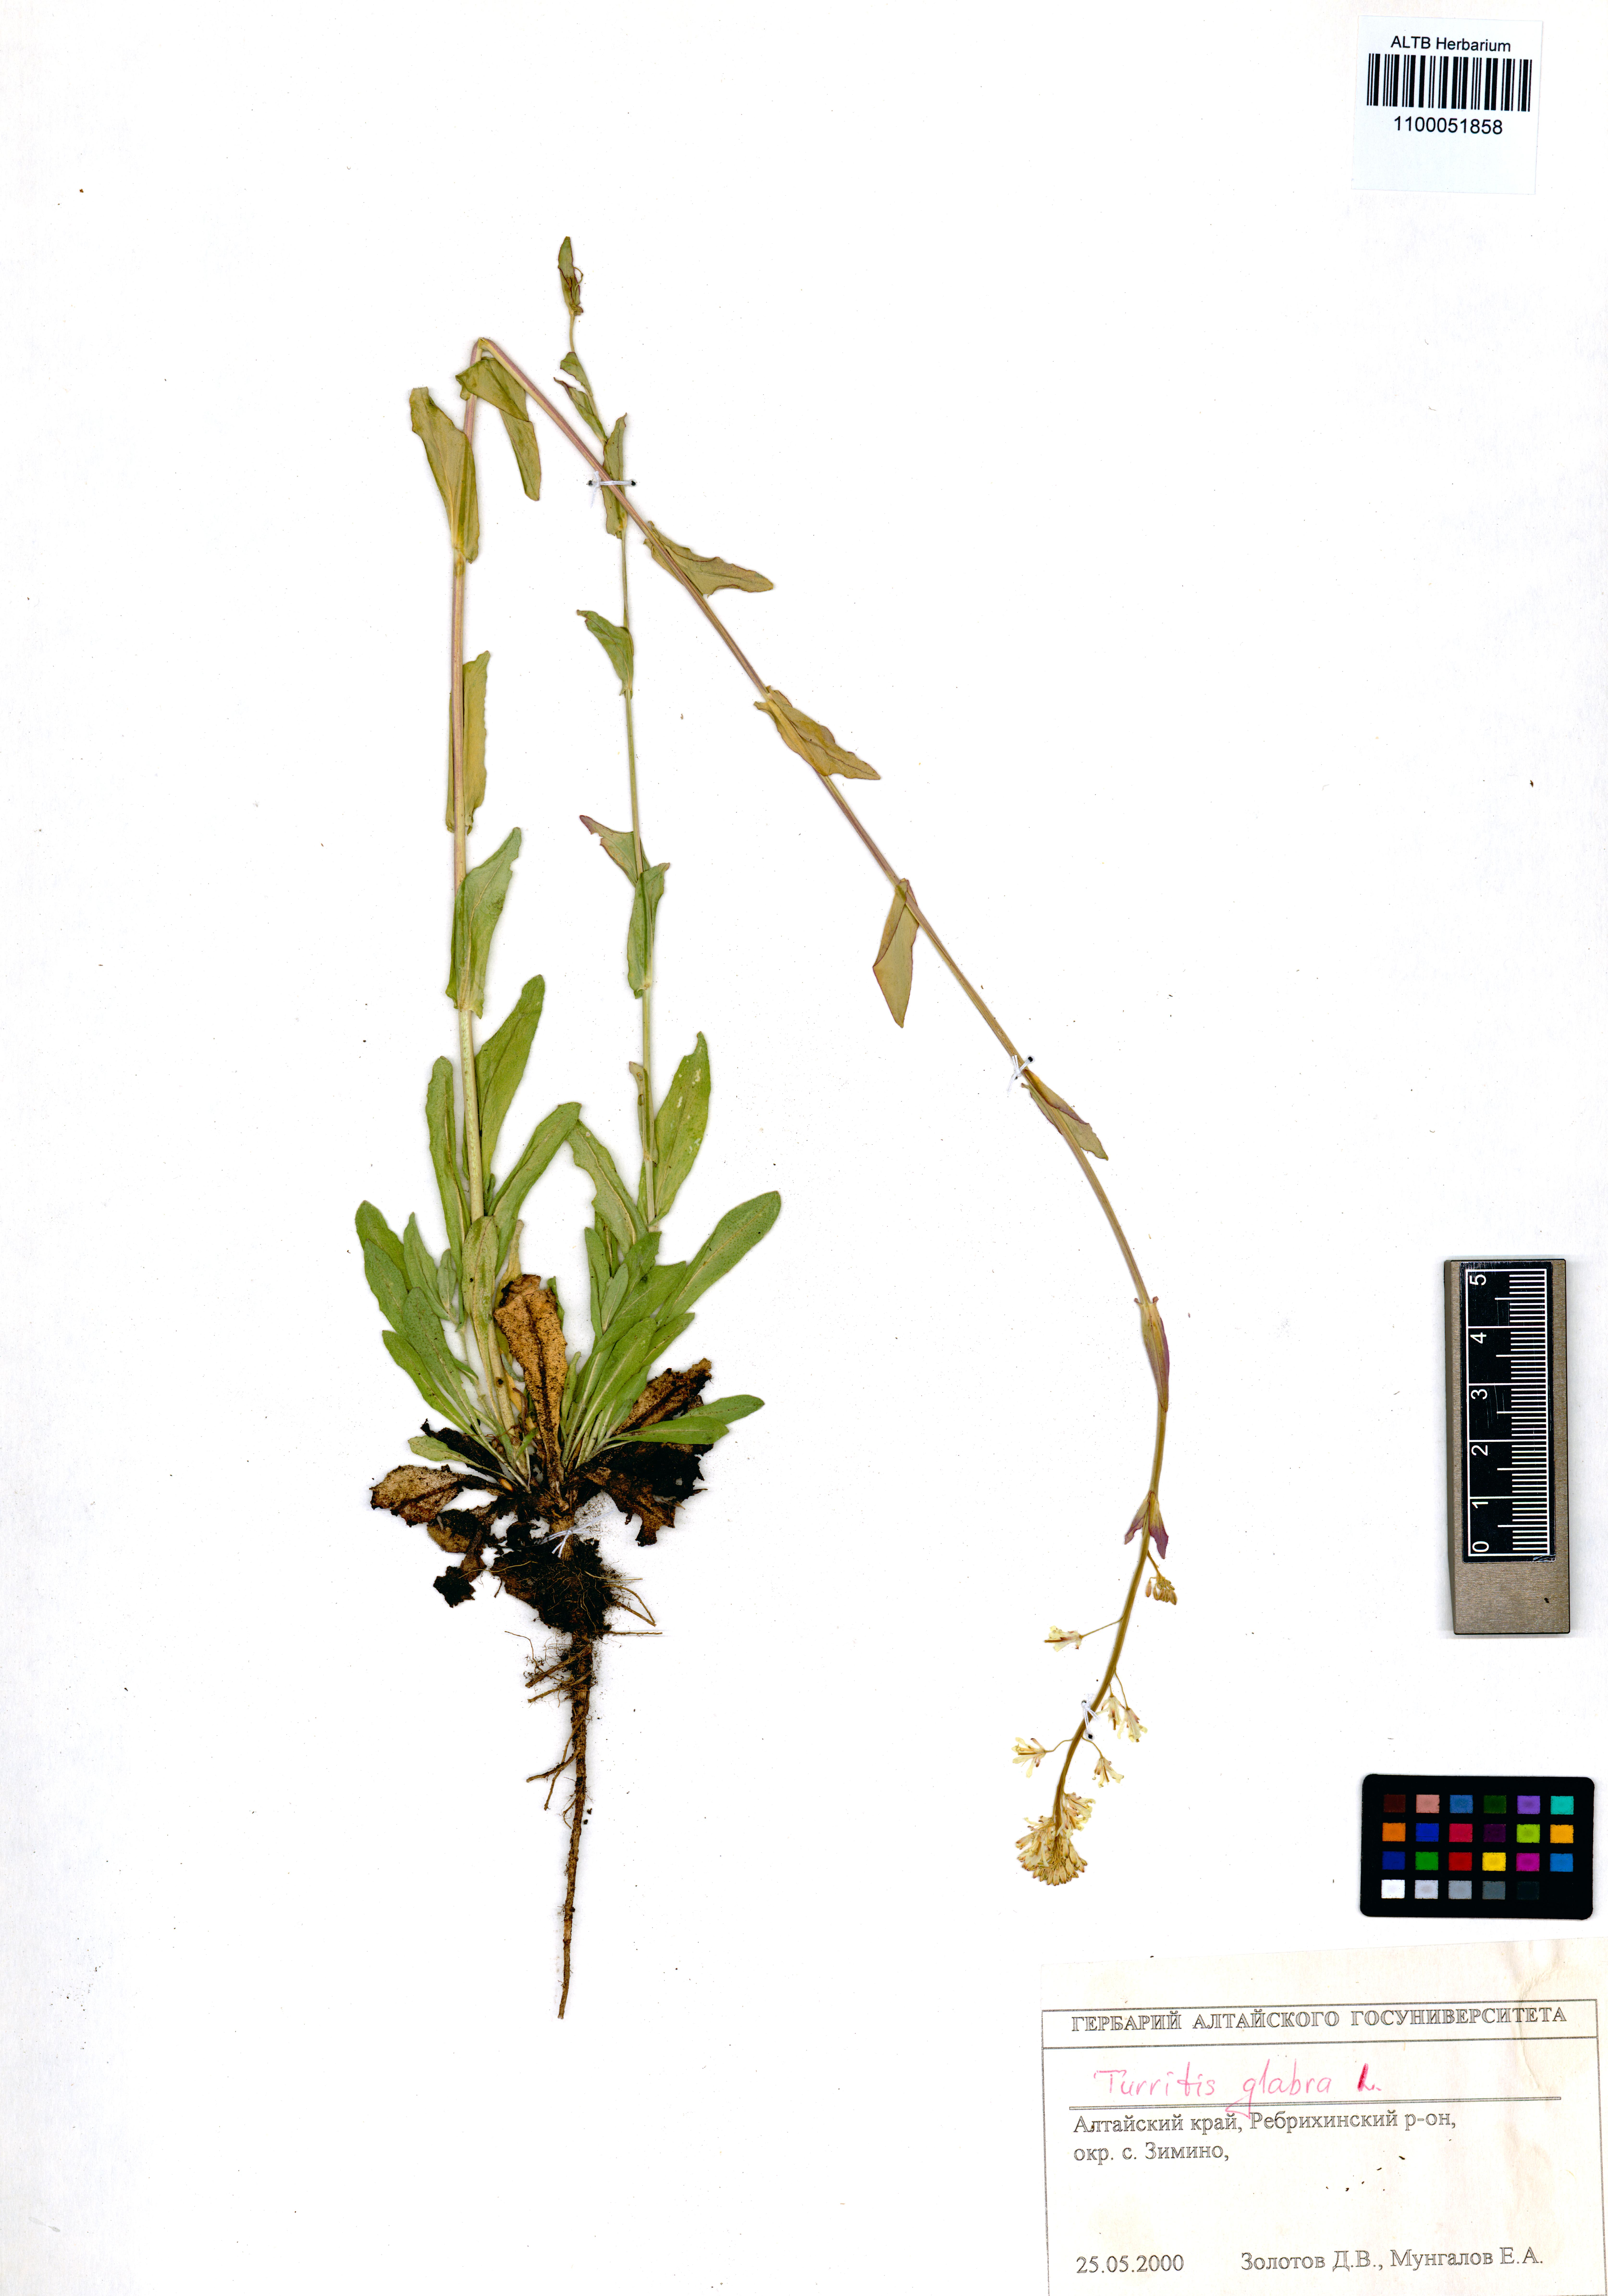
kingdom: Plantae
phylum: Tracheophyta
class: Magnoliopsida
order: Brassicales
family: Brassicaceae
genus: Turritis
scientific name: Turritis glabra
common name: Tower rockcress
